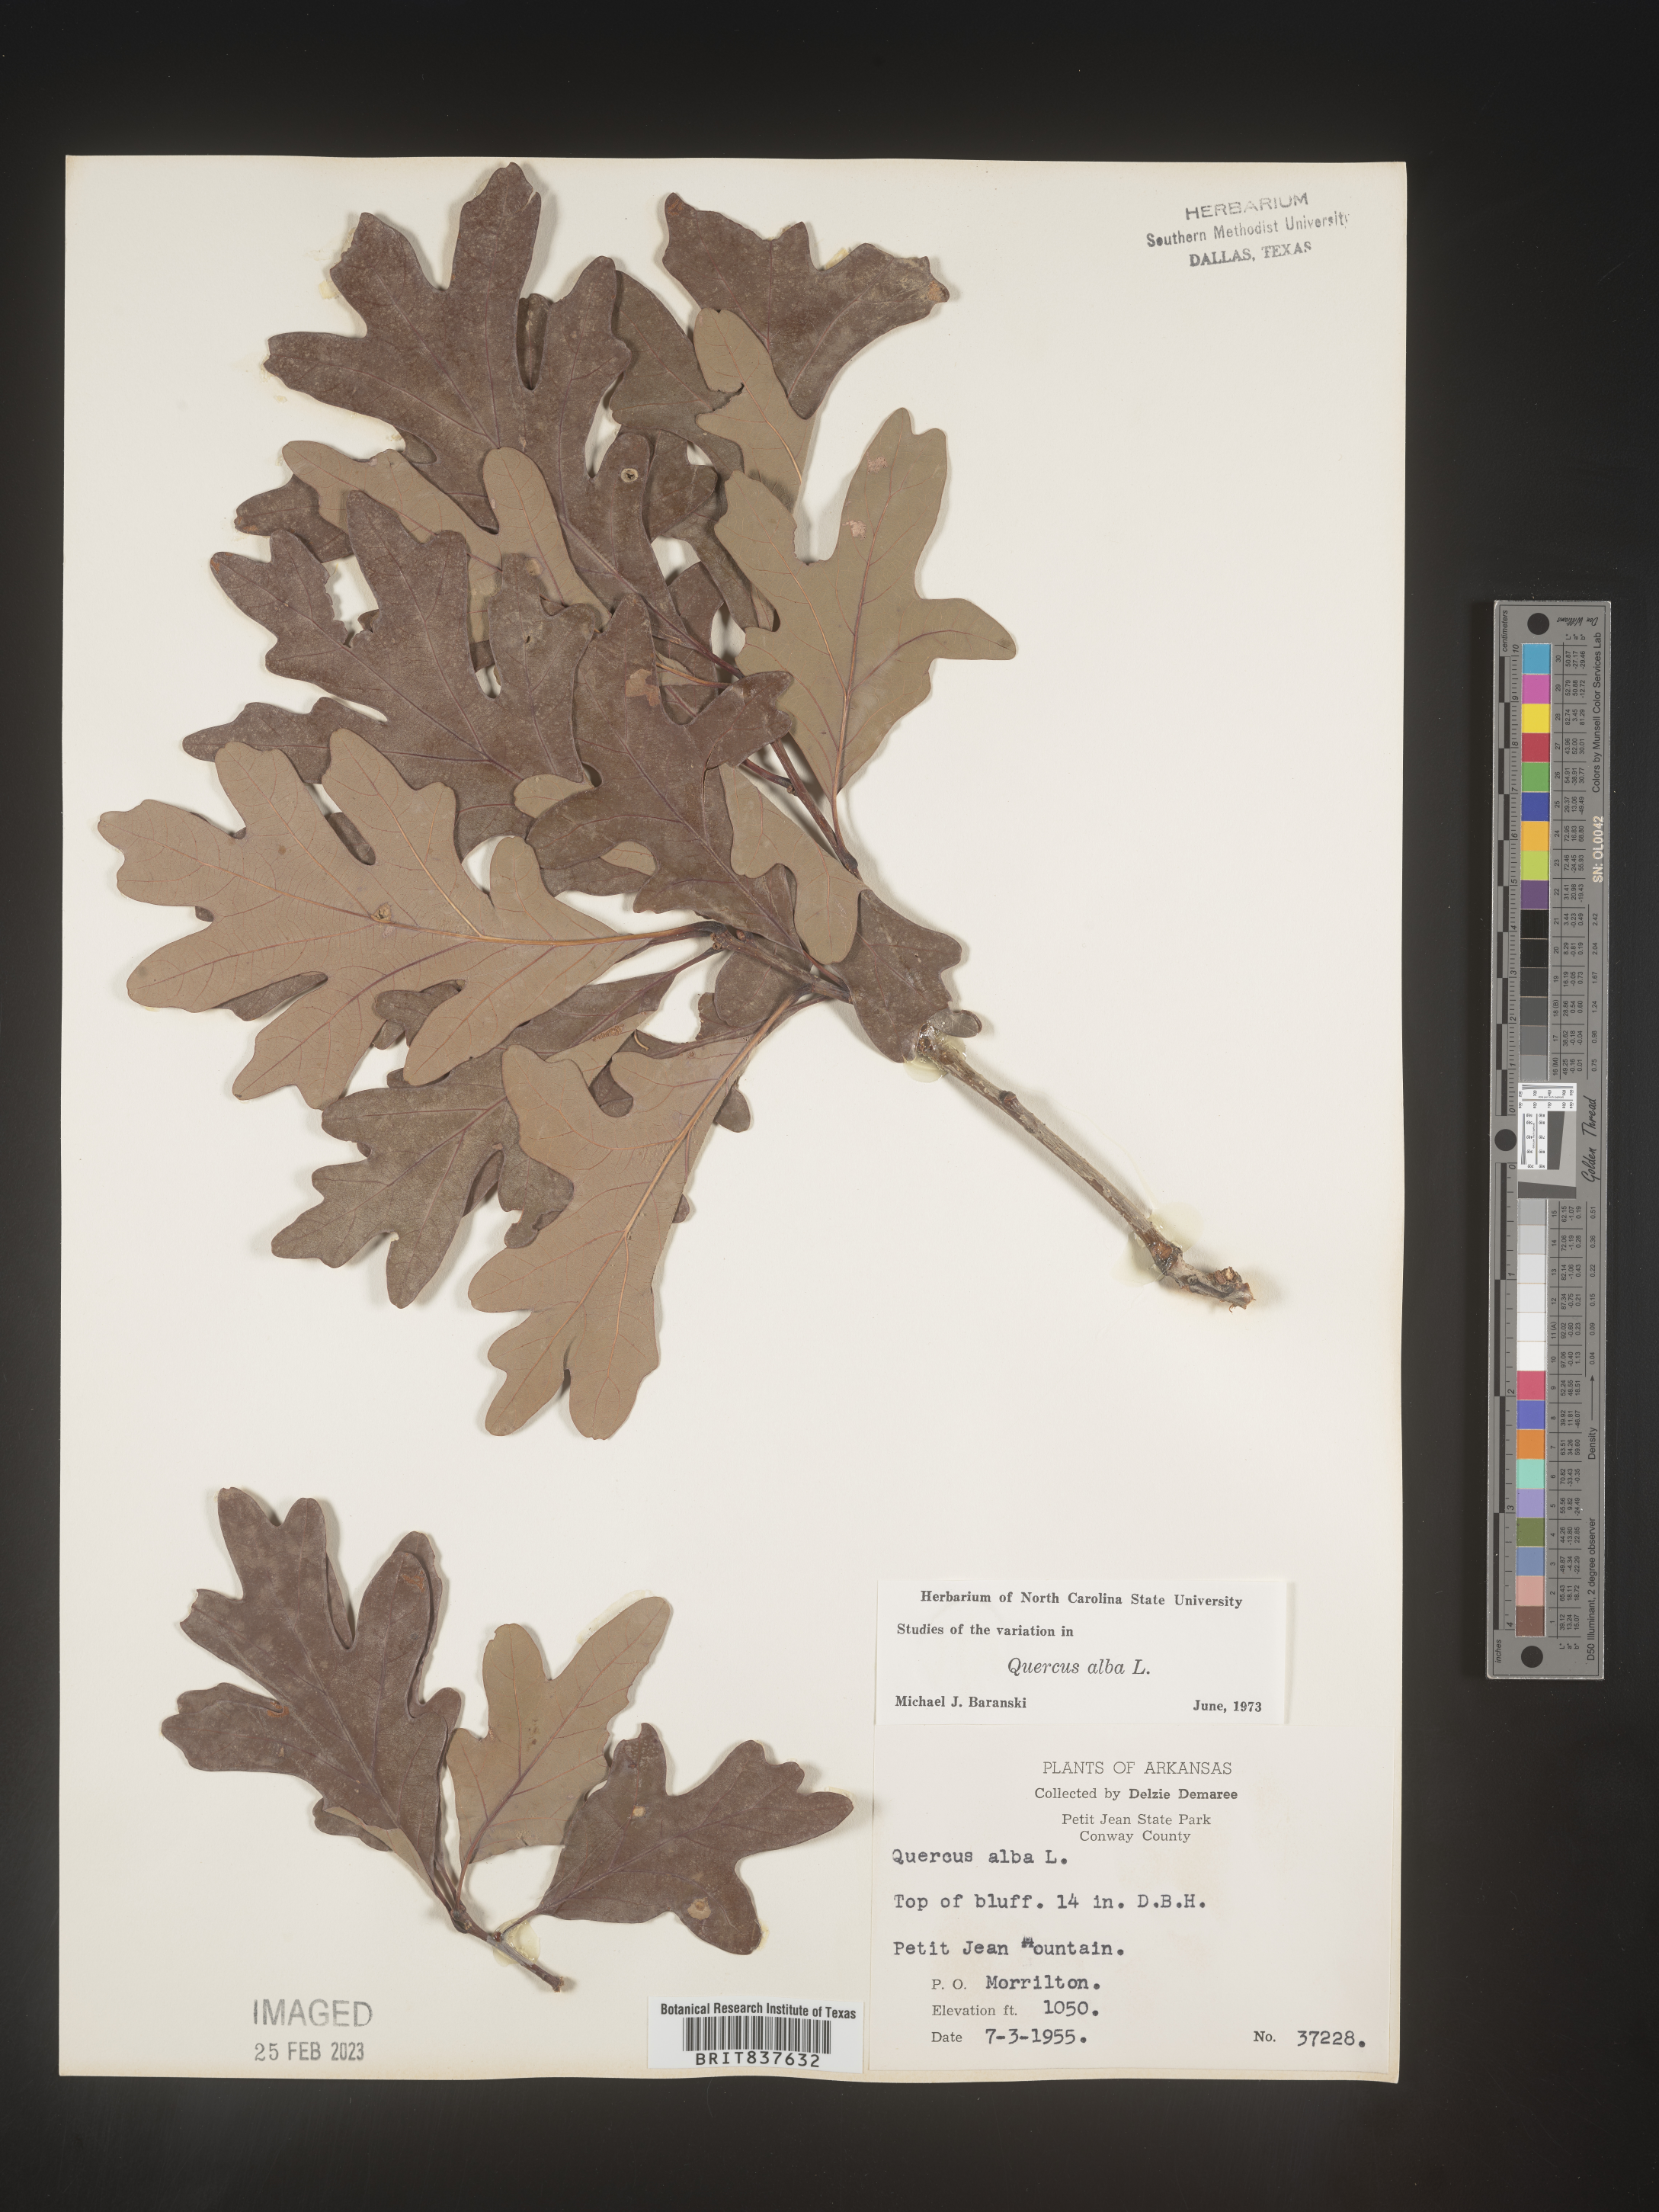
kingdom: Plantae
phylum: Tracheophyta
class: Magnoliopsida
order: Fagales
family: Fagaceae
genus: Quercus
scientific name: Quercus alba
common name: White oak
